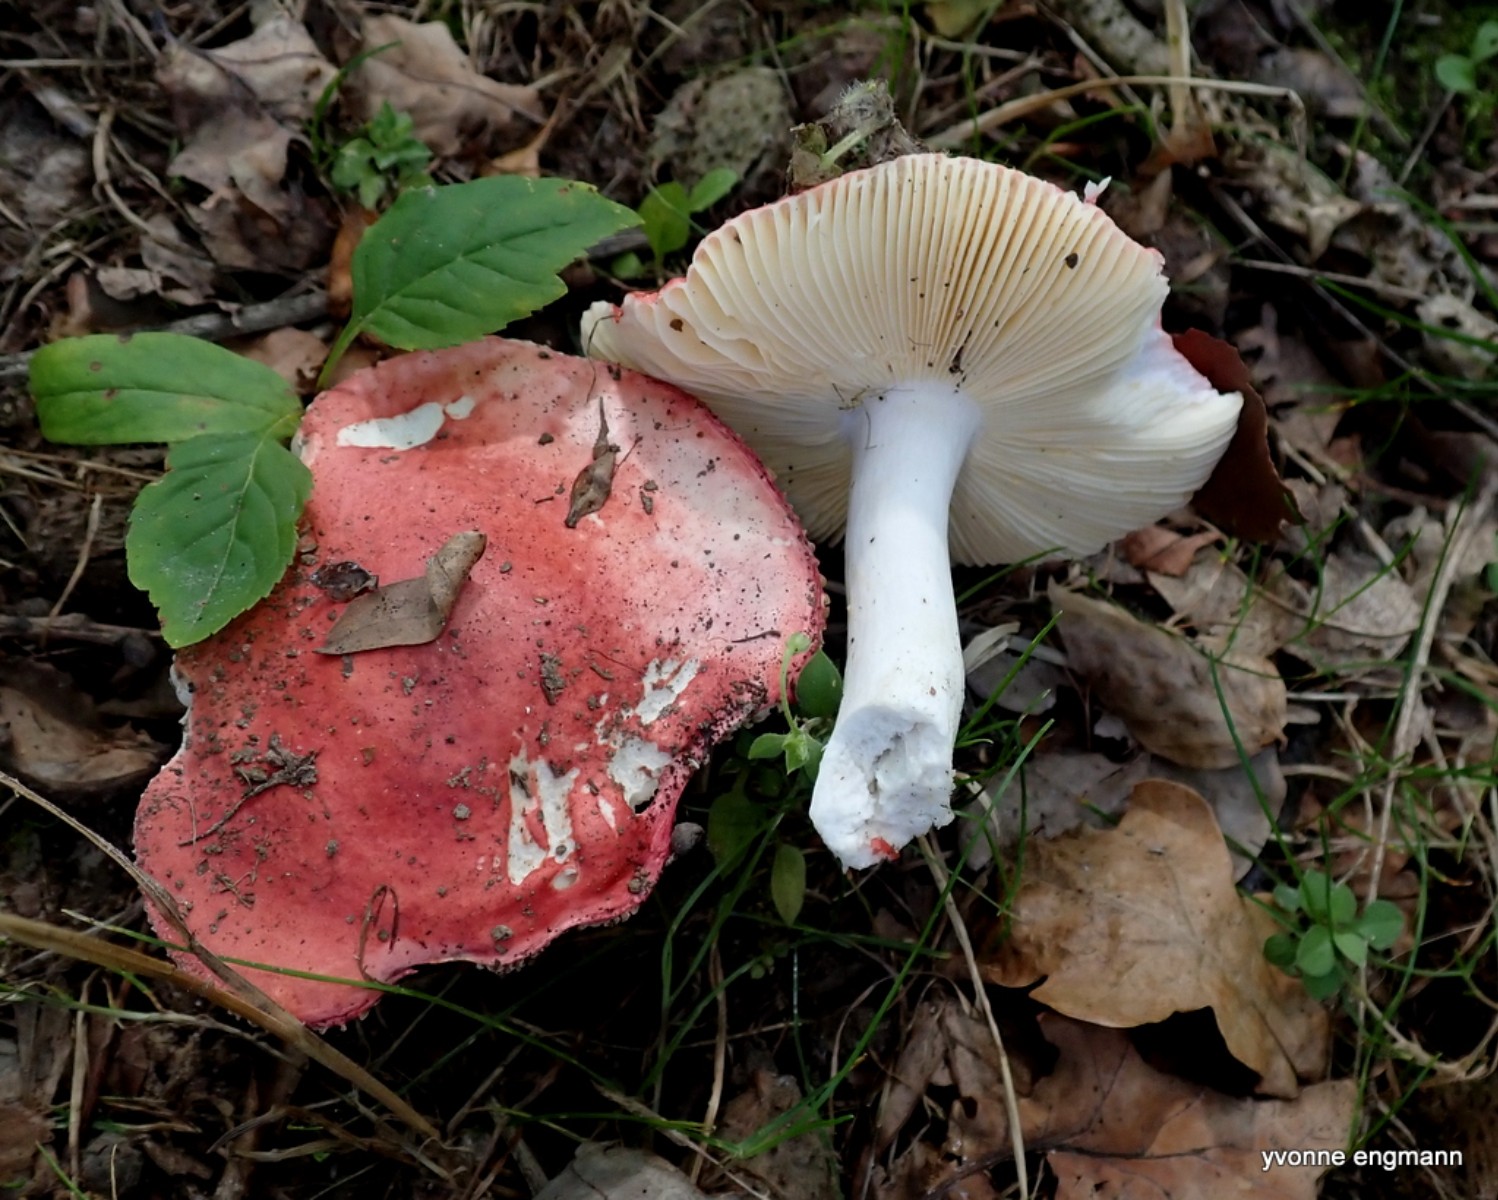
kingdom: Fungi
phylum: Basidiomycota
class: Agaricomycetes
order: Russulales
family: Russulaceae
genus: Russula
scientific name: Russula
